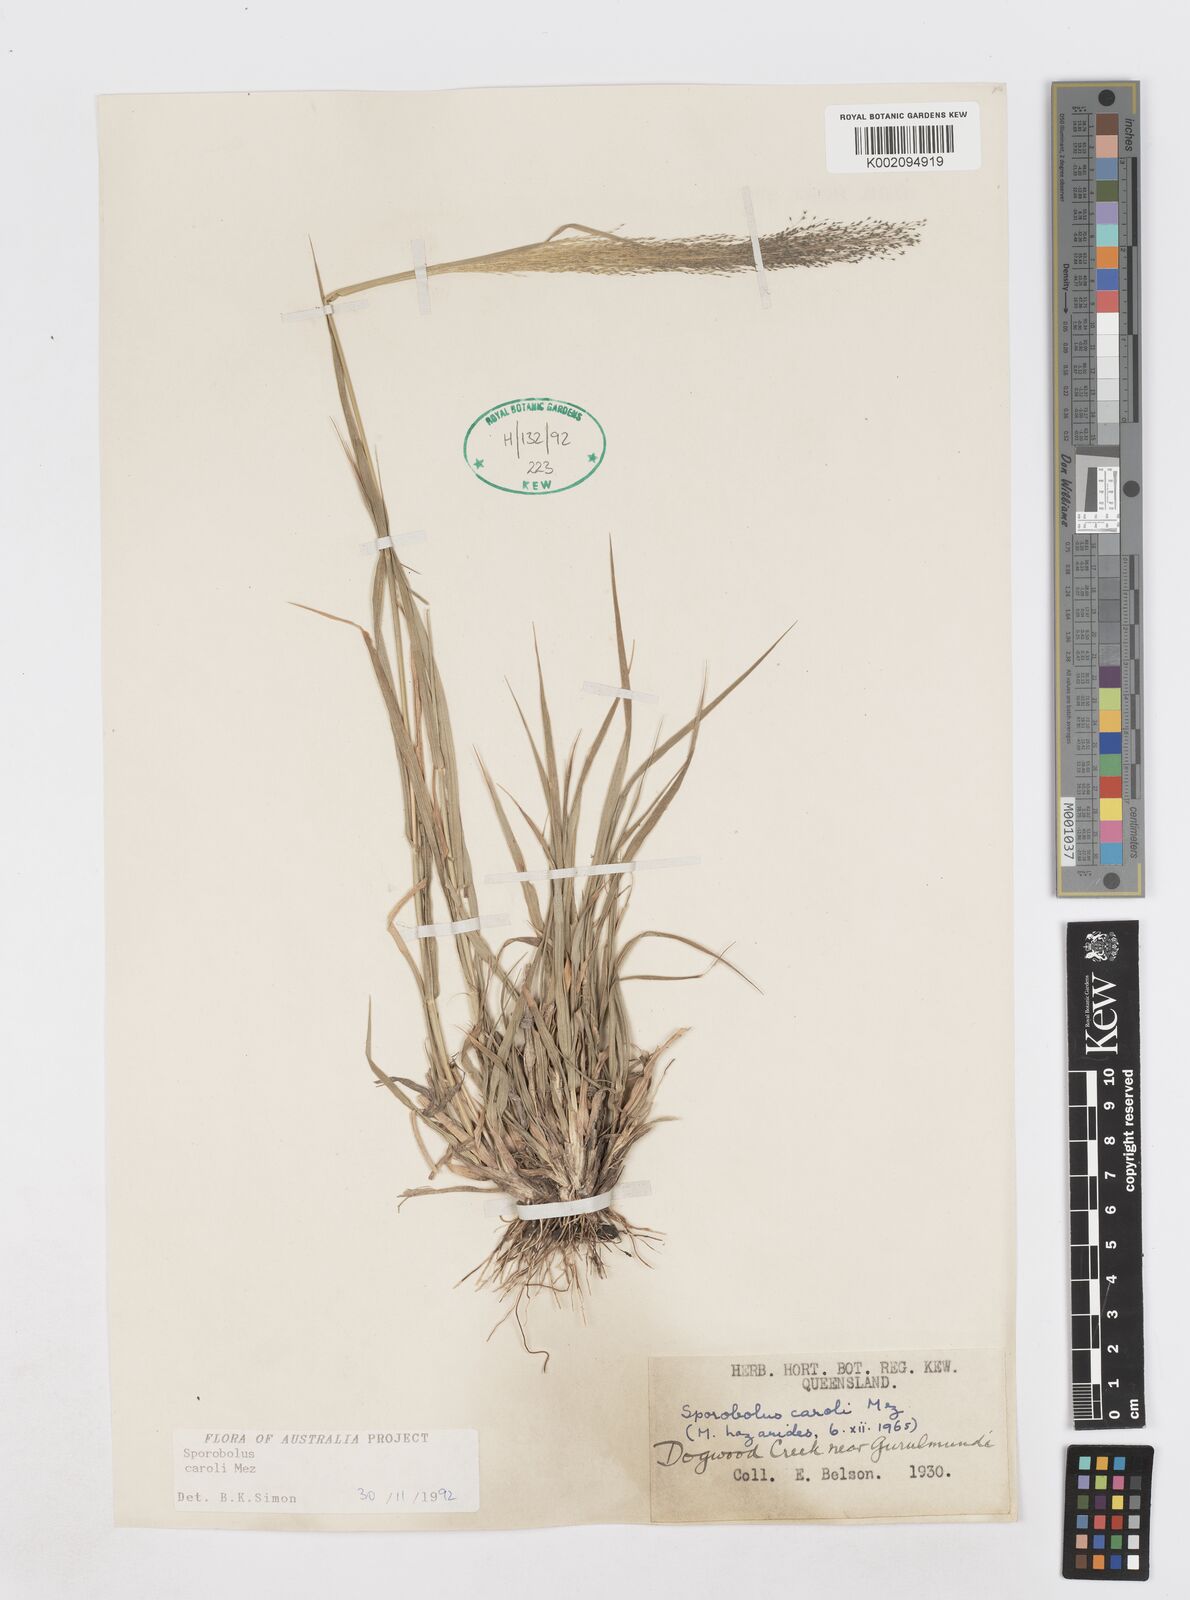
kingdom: Plantae
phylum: Tracheophyta
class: Liliopsida
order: Poales
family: Poaceae
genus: Sporobolus
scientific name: Sporobolus caroli
